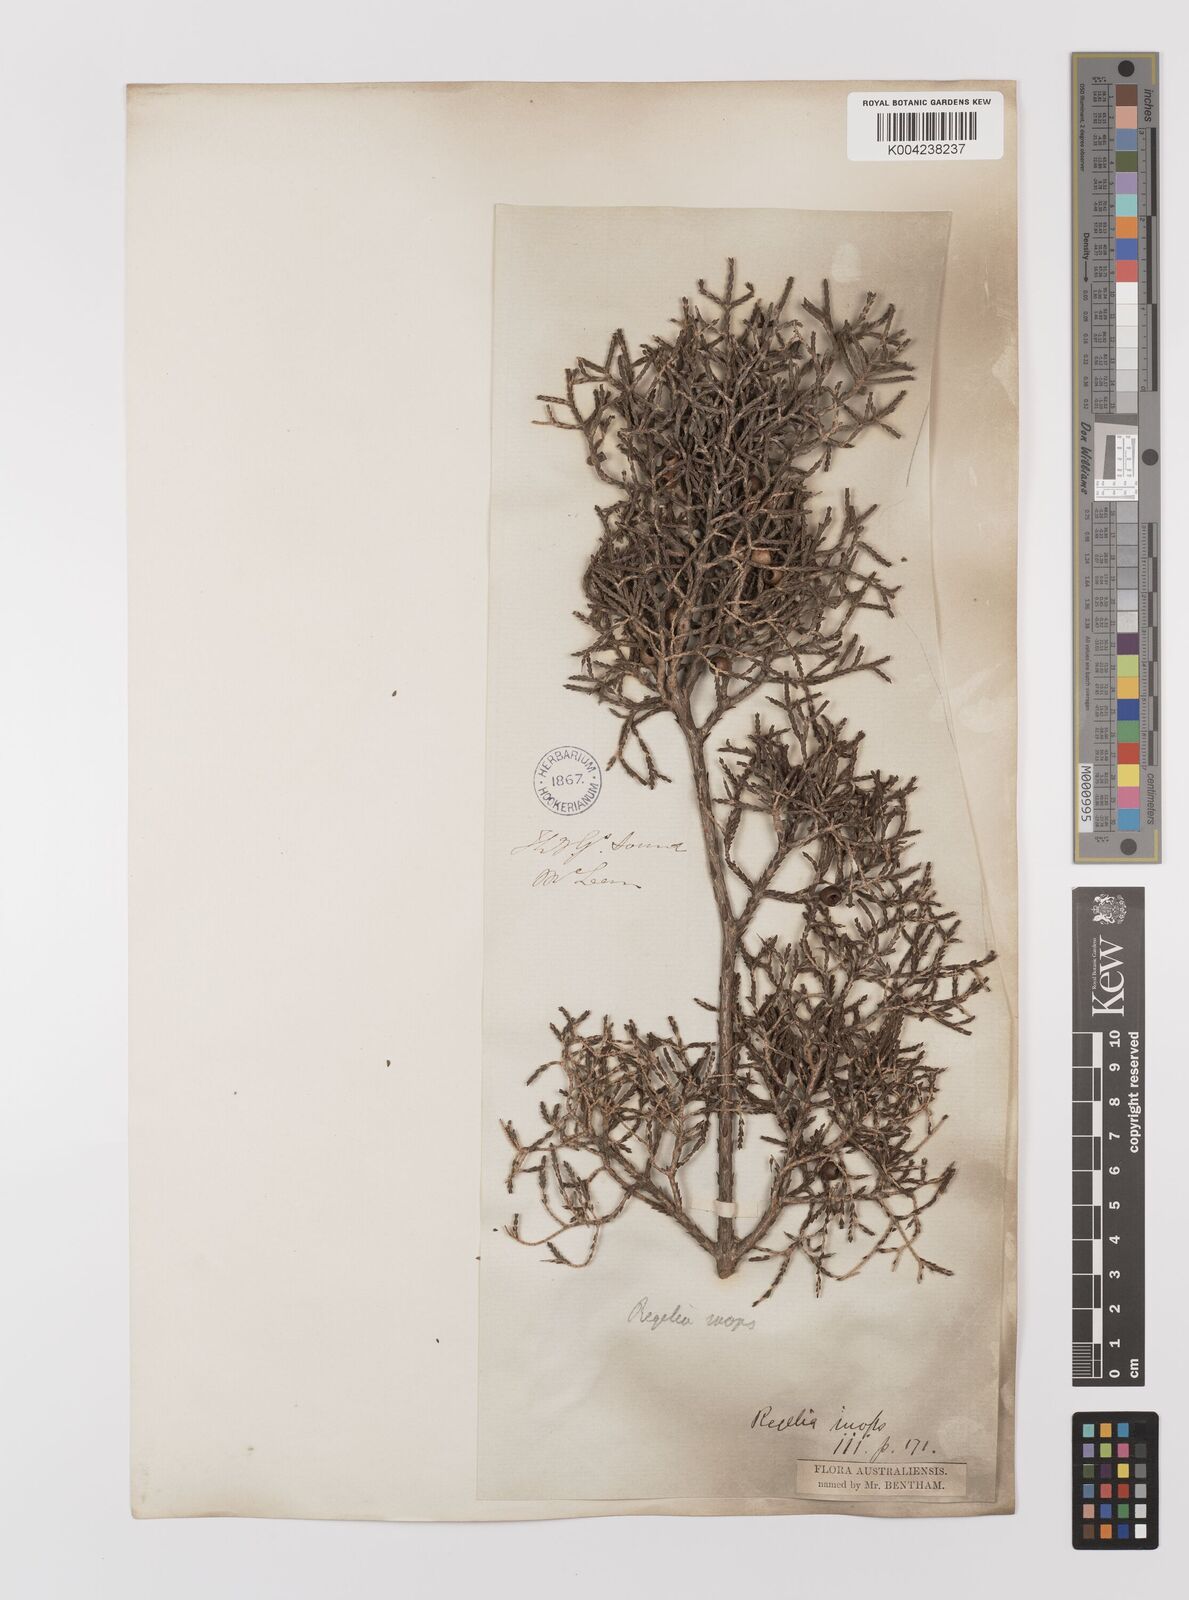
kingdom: Plantae
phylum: Tracheophyta
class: Magnoliopsida
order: Myrtales
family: Myrtaceae
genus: Melaleuca
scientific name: Melaleuca inops
